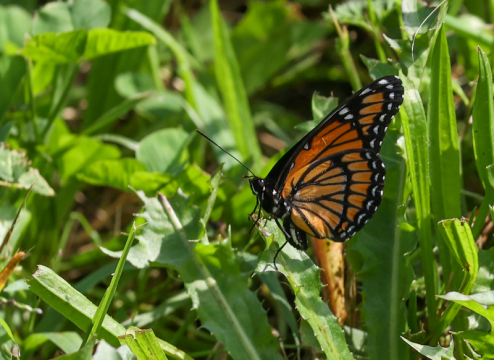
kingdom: Animalia
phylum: Arthropoda
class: Insecta
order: Lepidoptera
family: Nymphalidae
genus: Limenitis
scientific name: Limenitis archippus
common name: Viceroy
